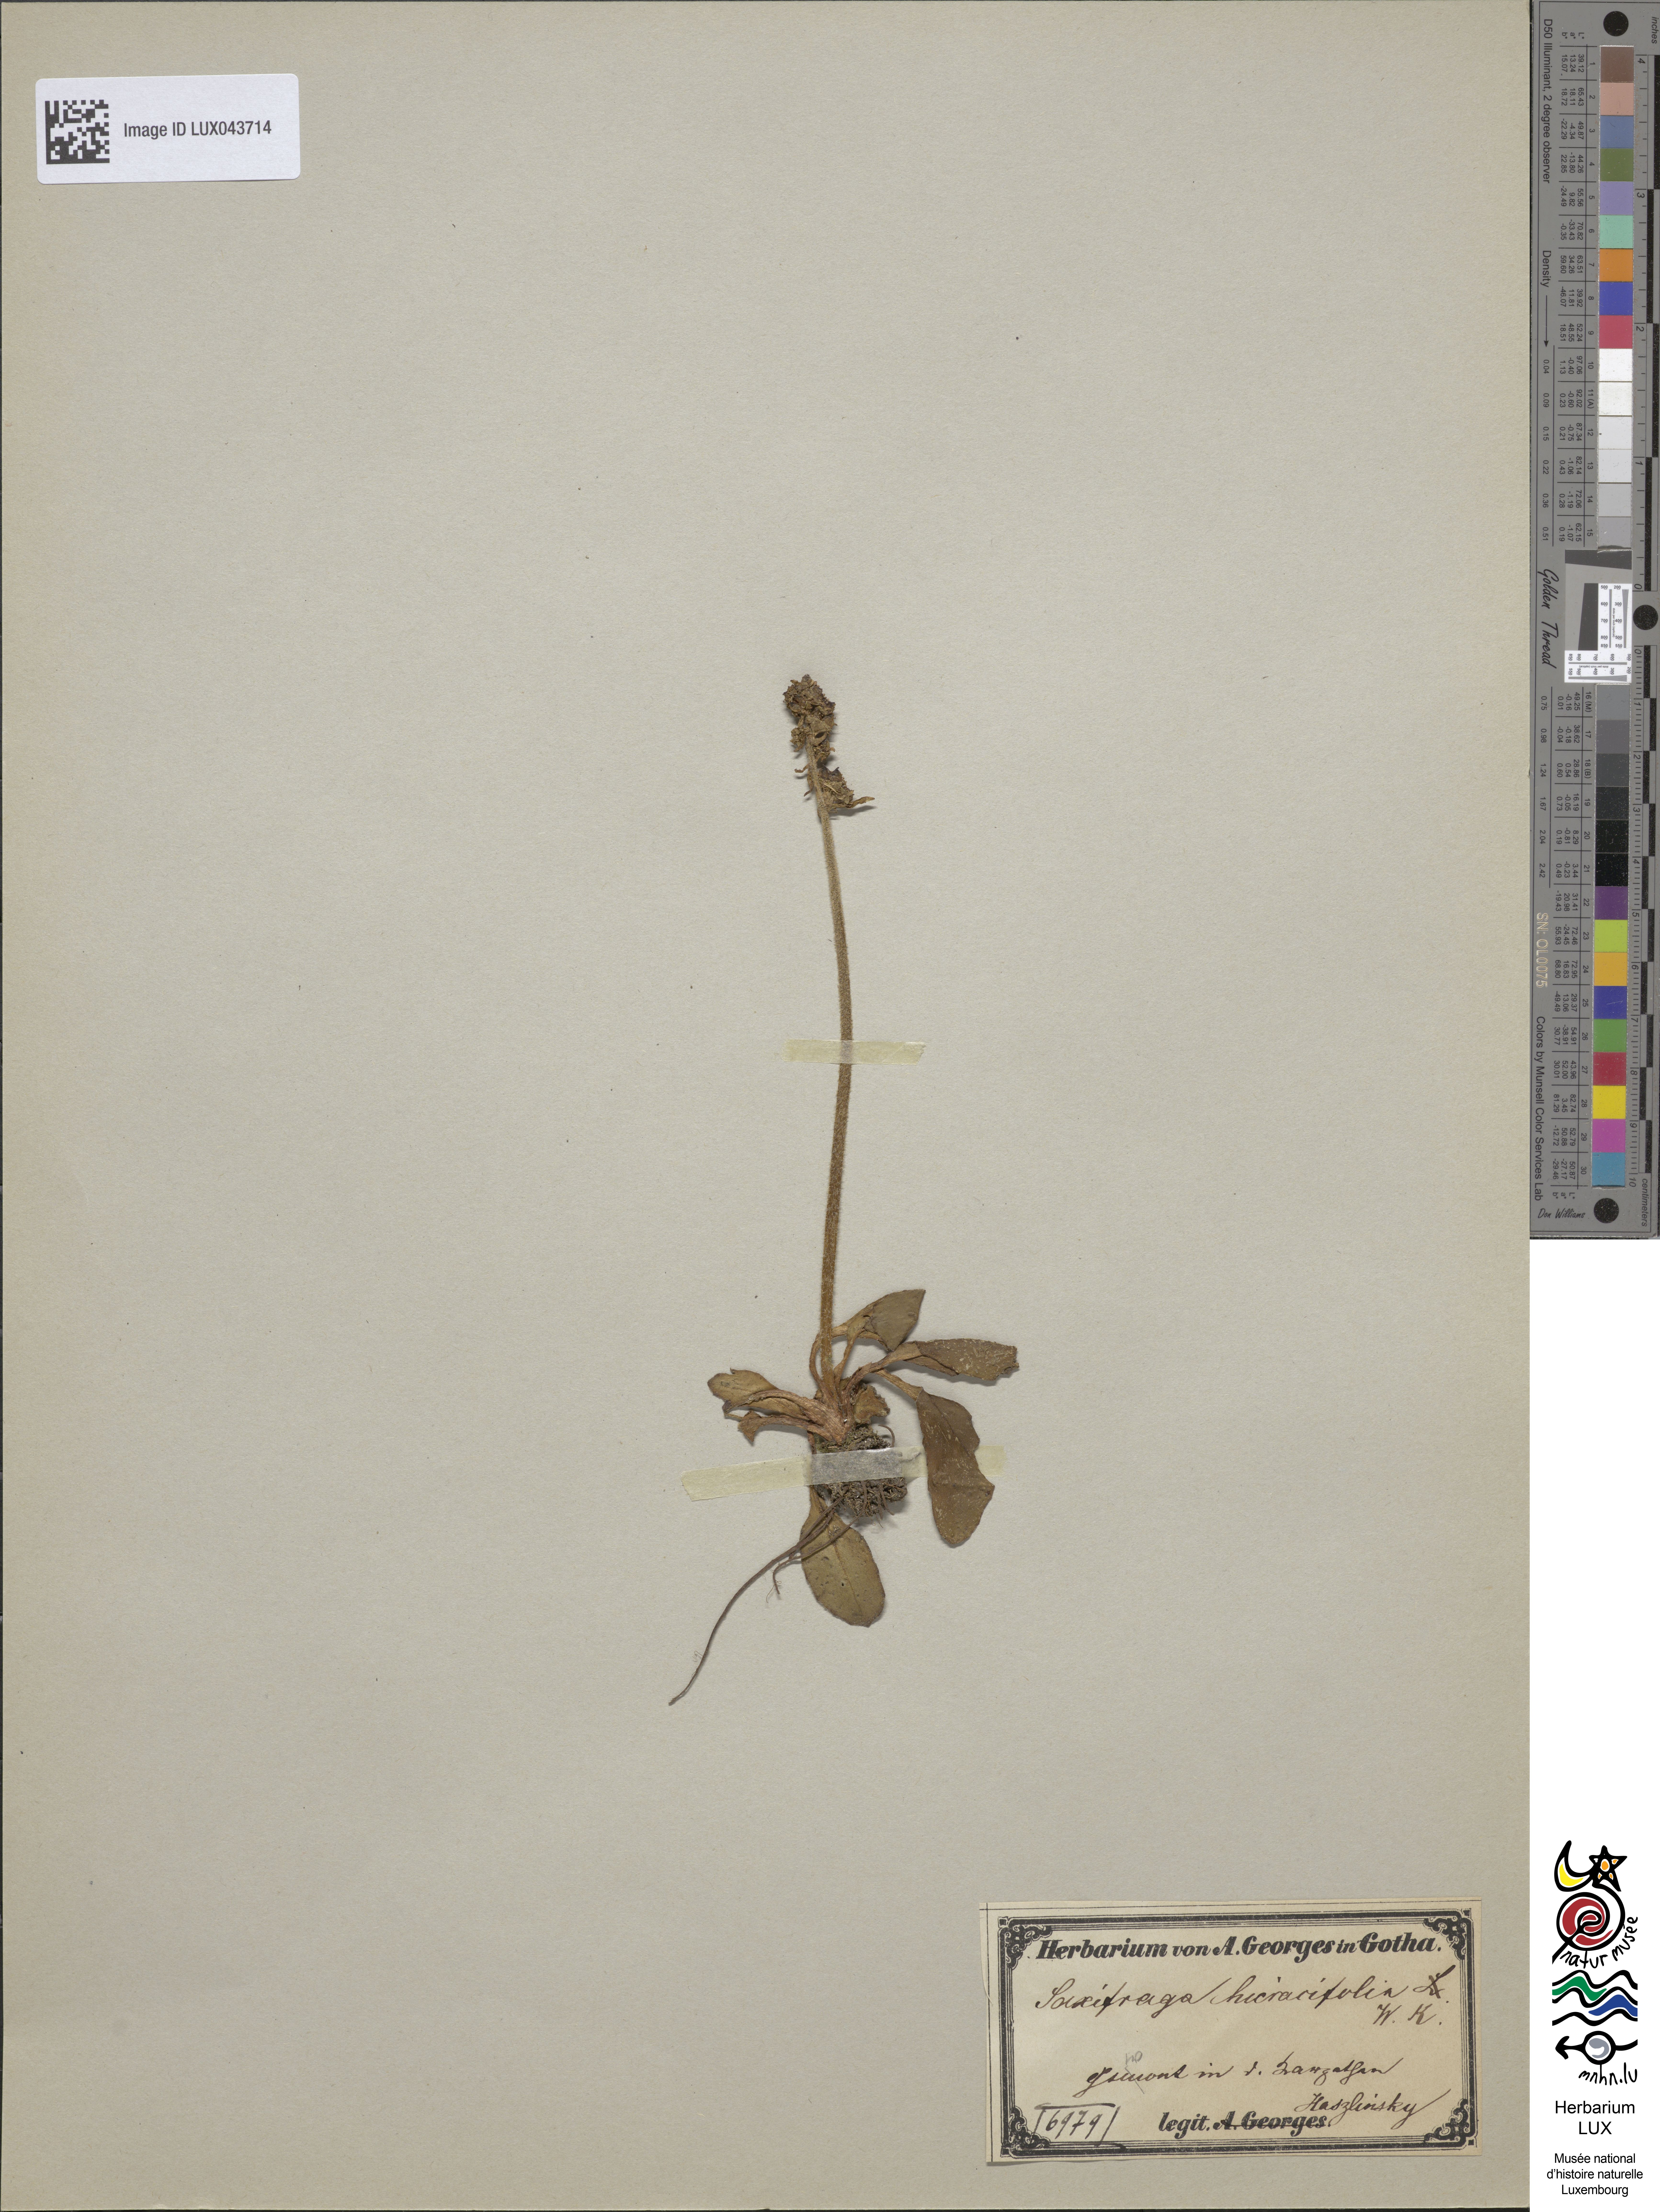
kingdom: Plantae
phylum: Tracheophyta
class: Magnoliopsida
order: Saxifragales
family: Saxifragaceae
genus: Micranthes
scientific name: Micranthes hieraciifolia
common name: Hawkweed-leaved saxifrage
